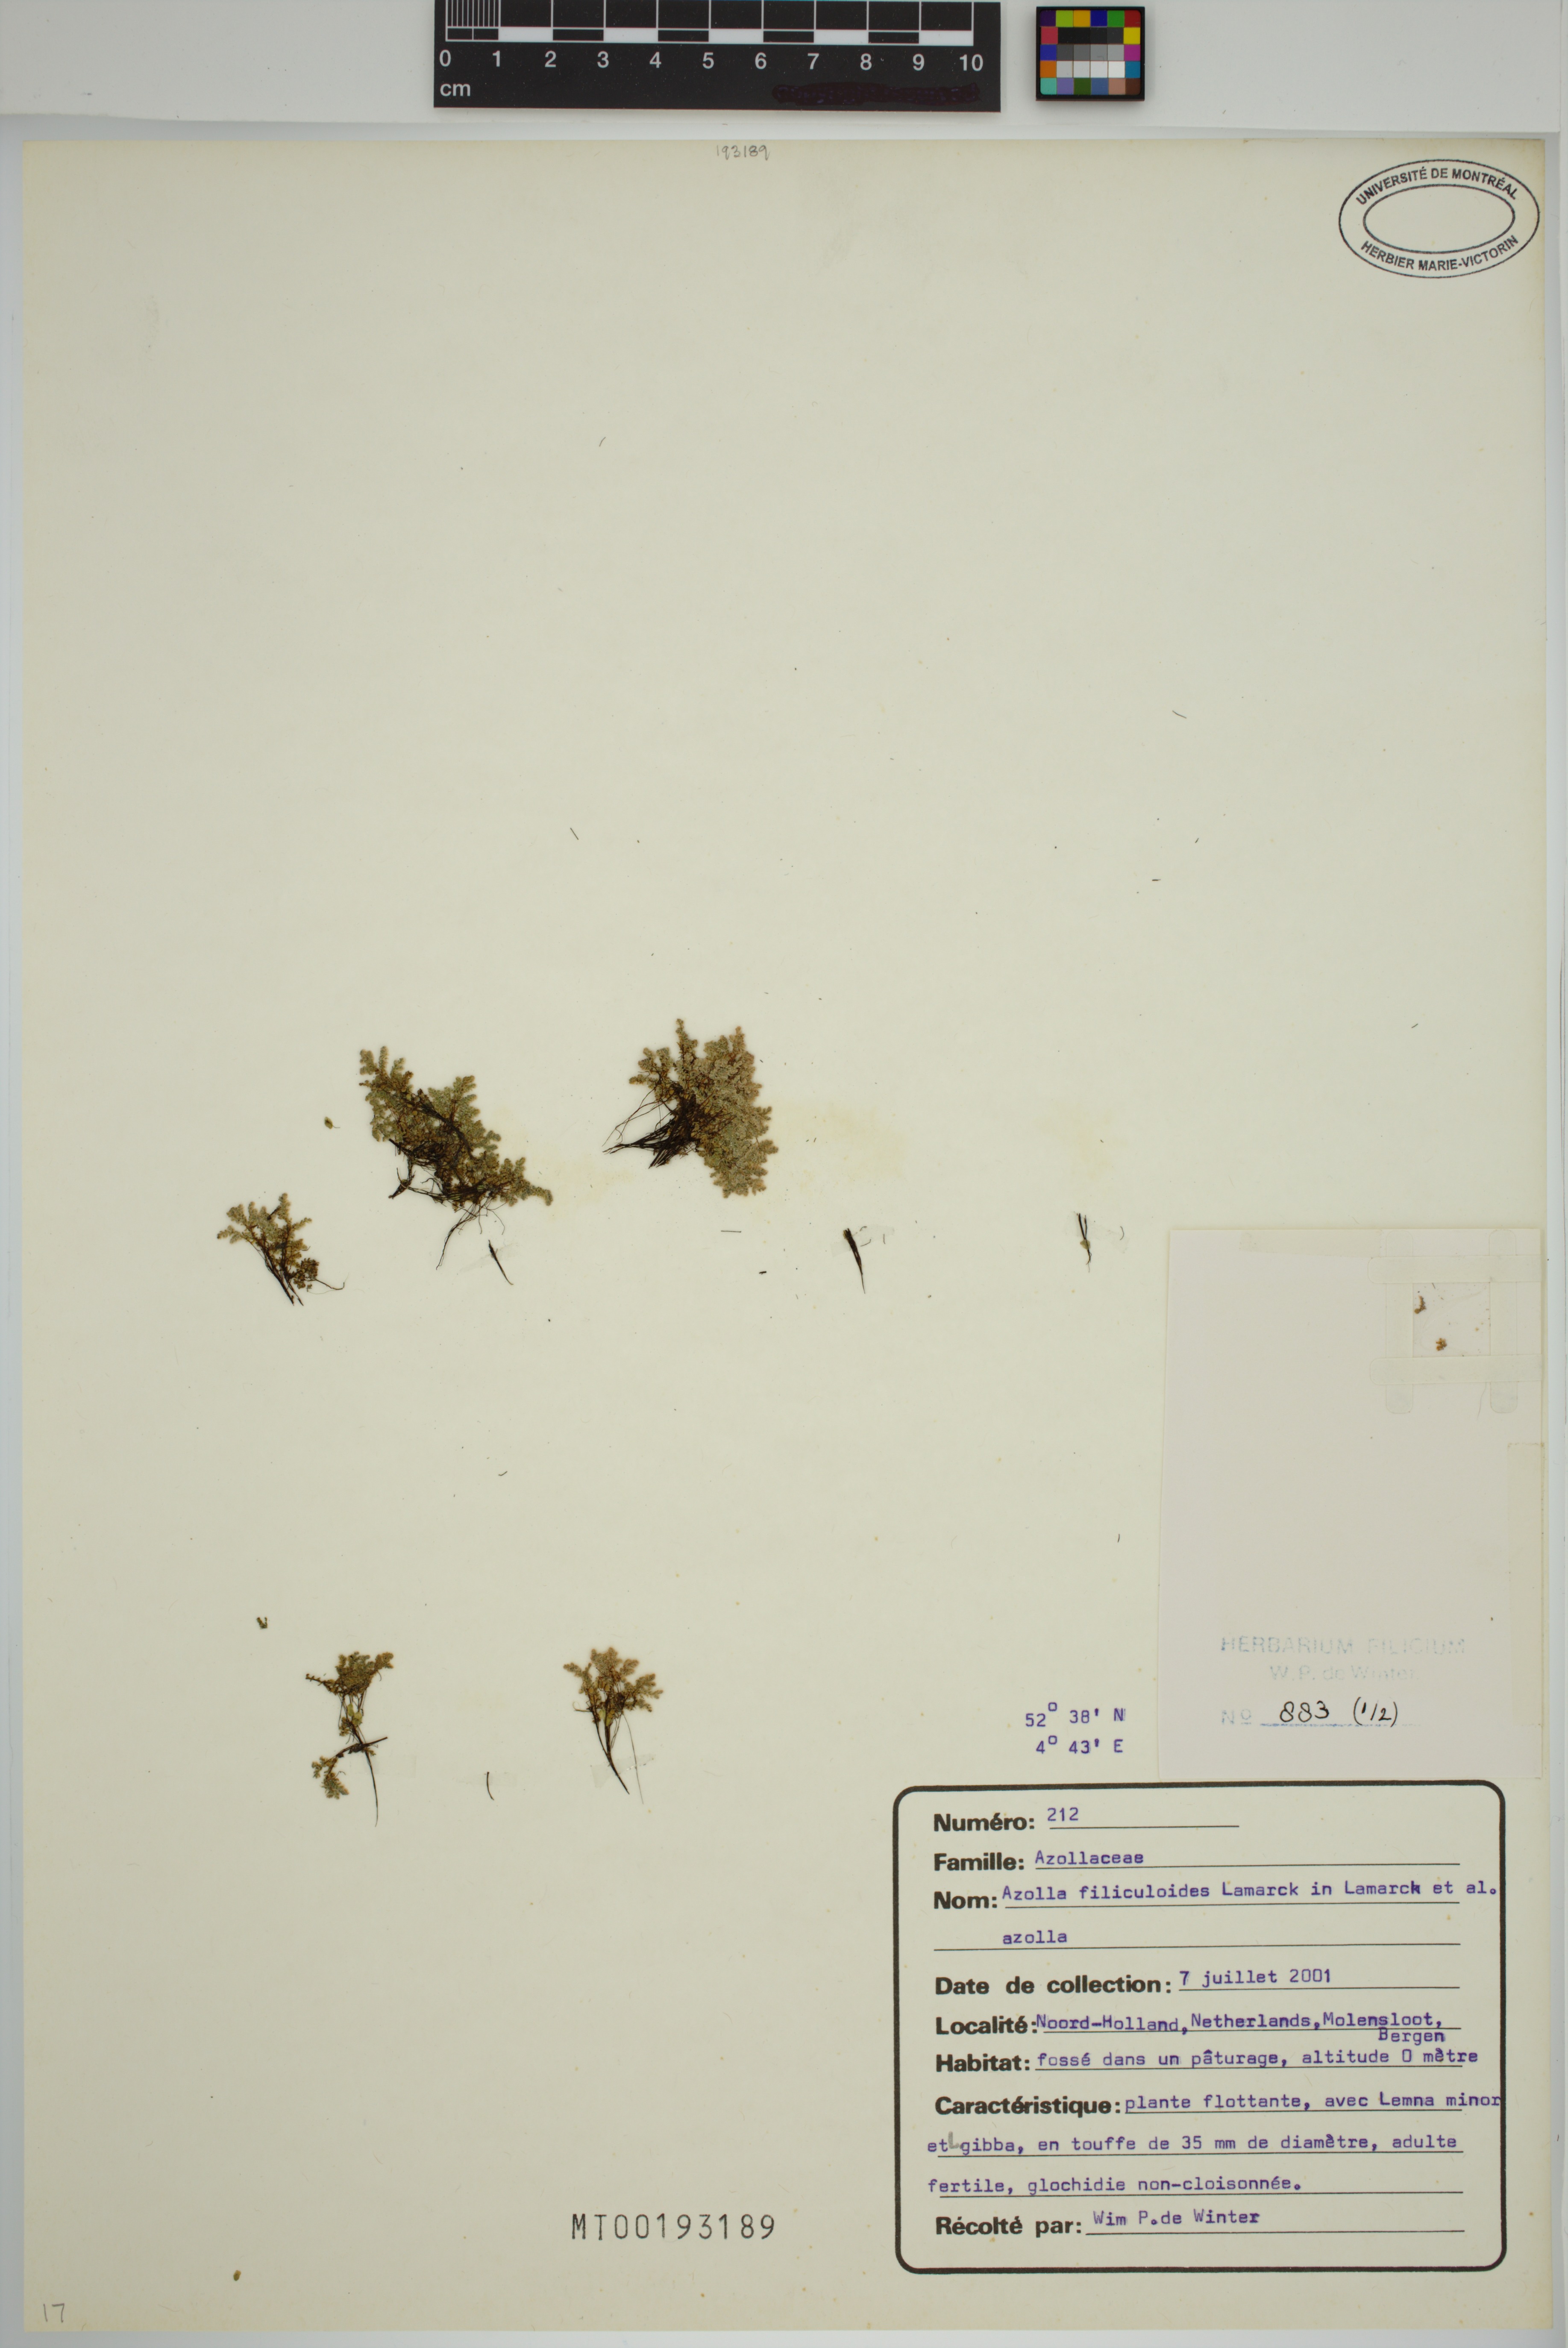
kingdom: Plantae
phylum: Tracheophyta
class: Polypodiopsida
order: Salviniales
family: Salviniaceae
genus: Azolla
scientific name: Azolla filiculoides
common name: Water fern
